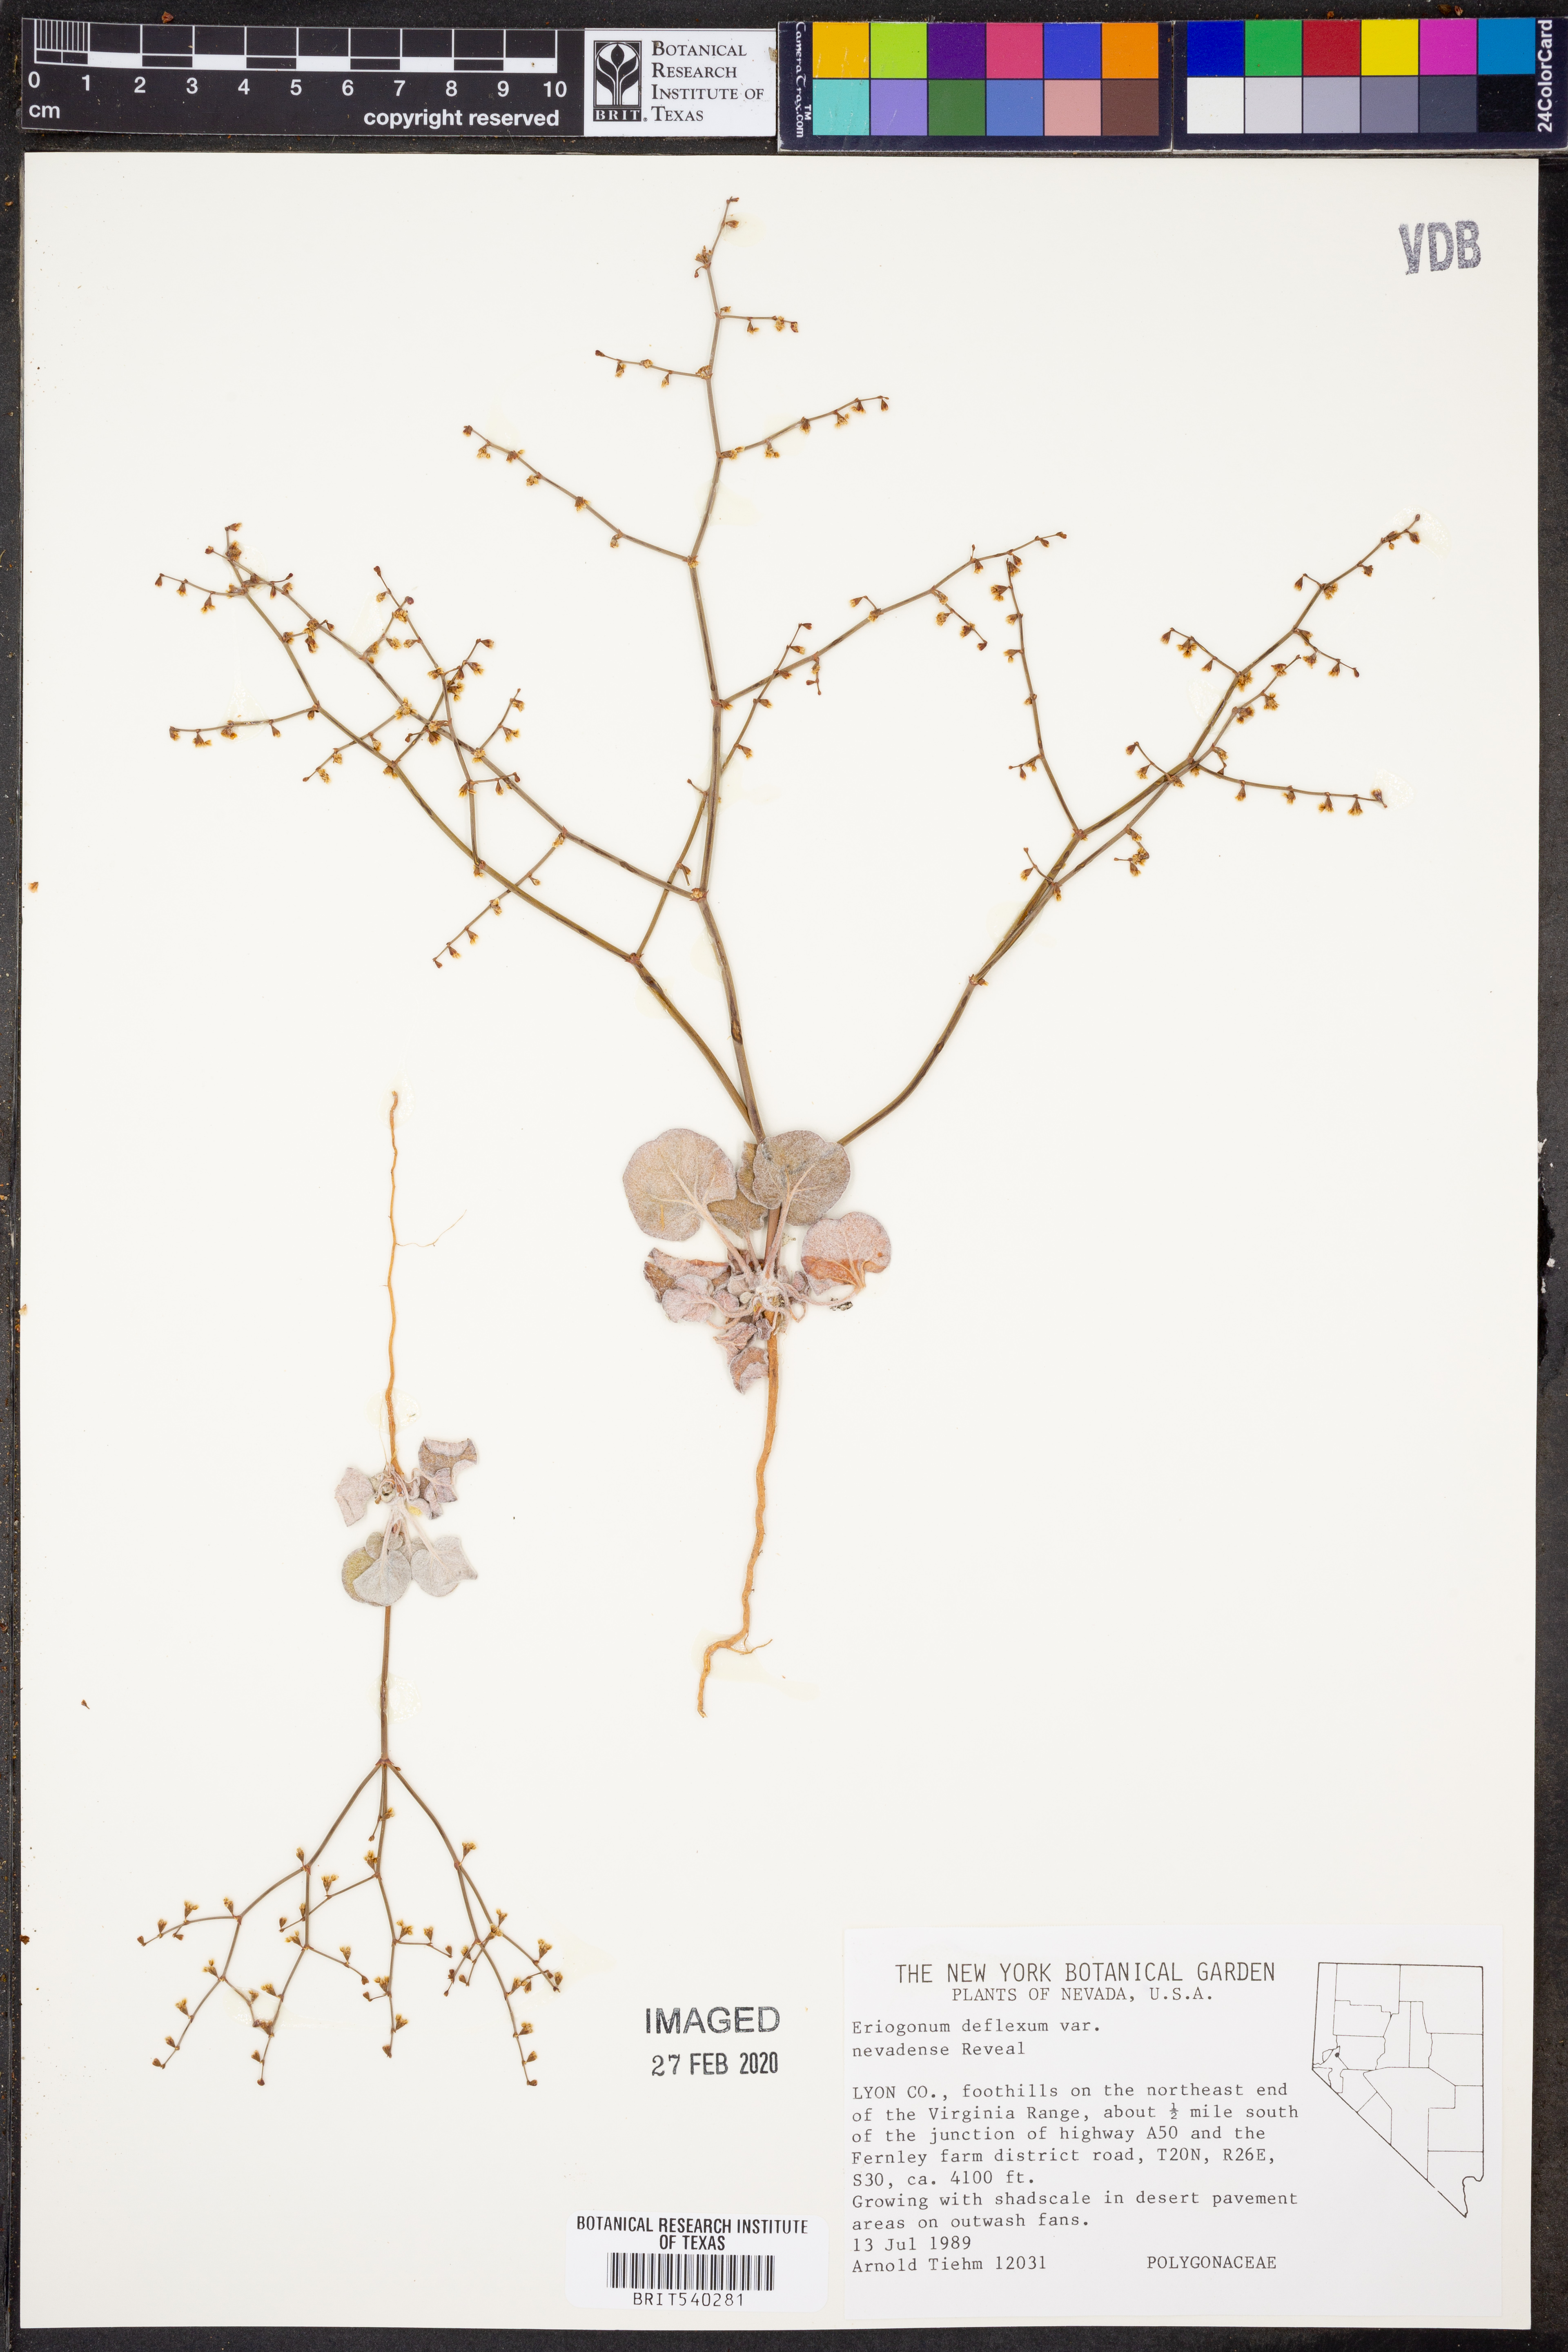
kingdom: Plantae
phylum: Tracheophyta
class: Magnoliopsida
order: Caryophyllales
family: Polygonaceae
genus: Eriogonum
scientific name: Eriogonum deflexum
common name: Skeleton-weed
